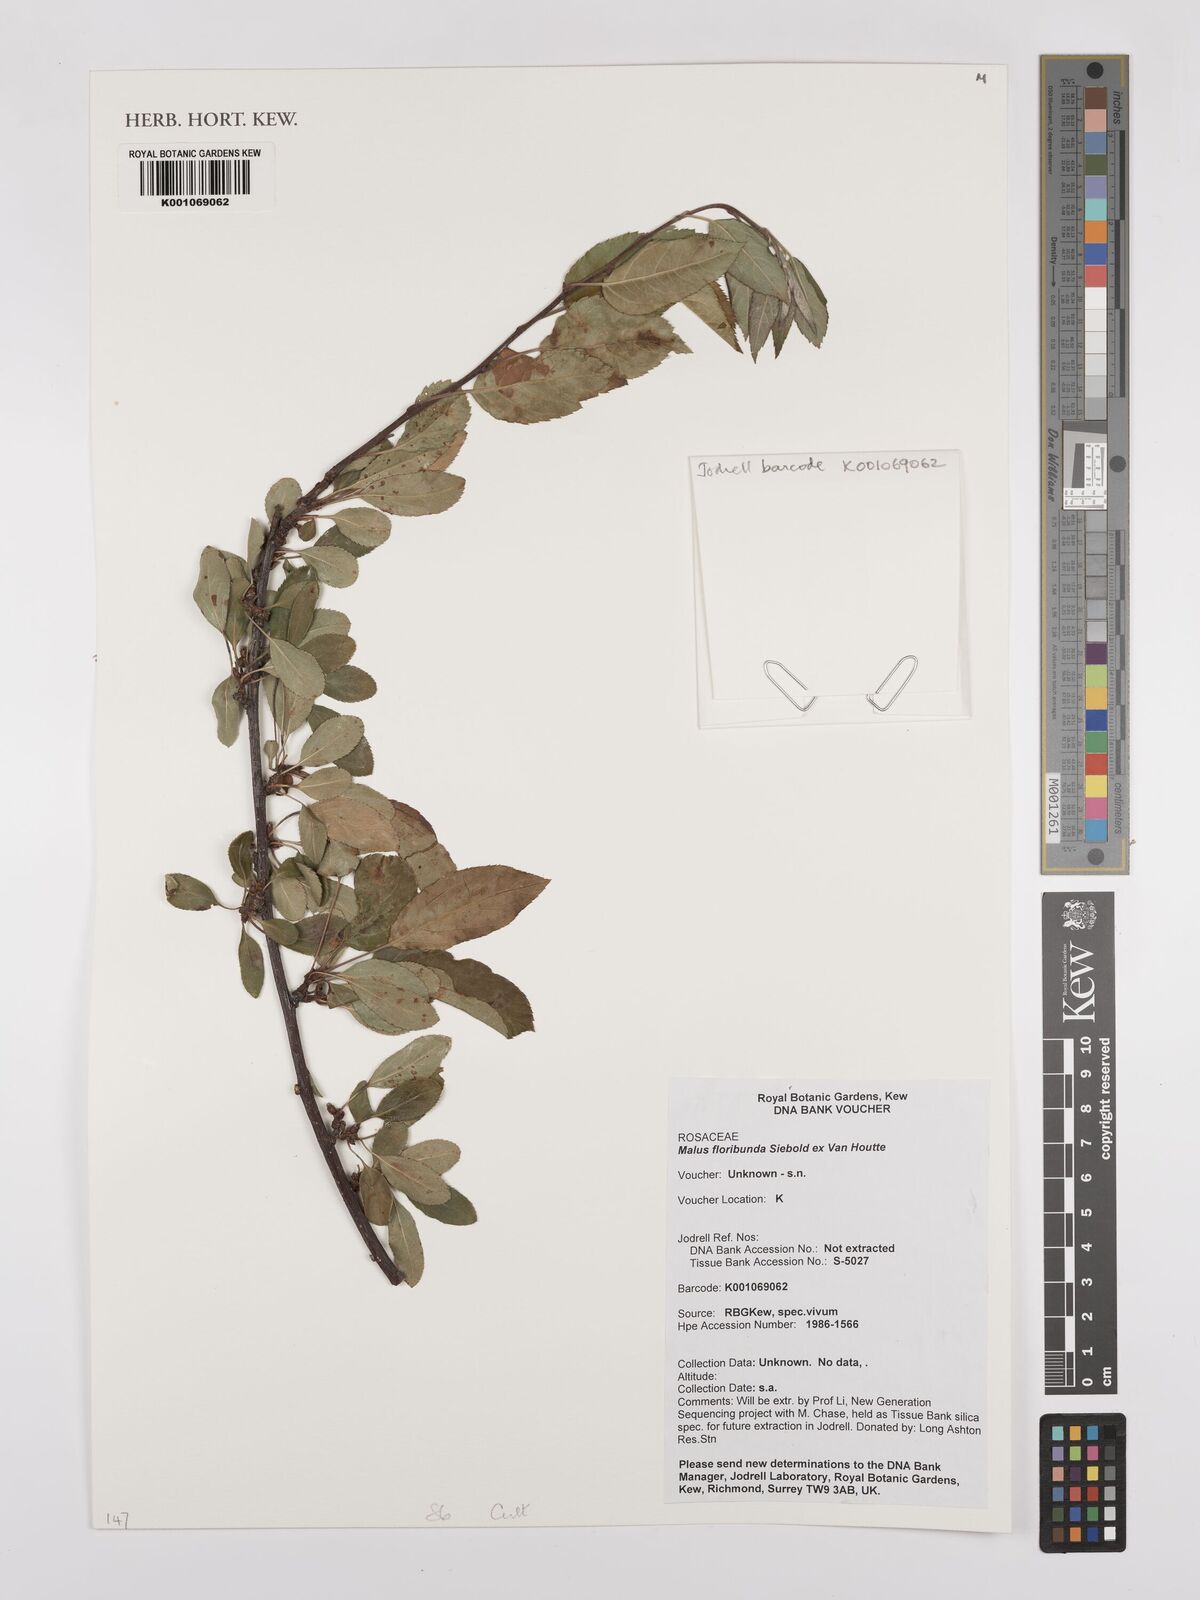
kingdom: Plantae
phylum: Tracheophyta
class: Magnoliopsida
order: Rosales
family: Rosaceae
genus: Malus
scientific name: Malus floribunda
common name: Japanese crab
